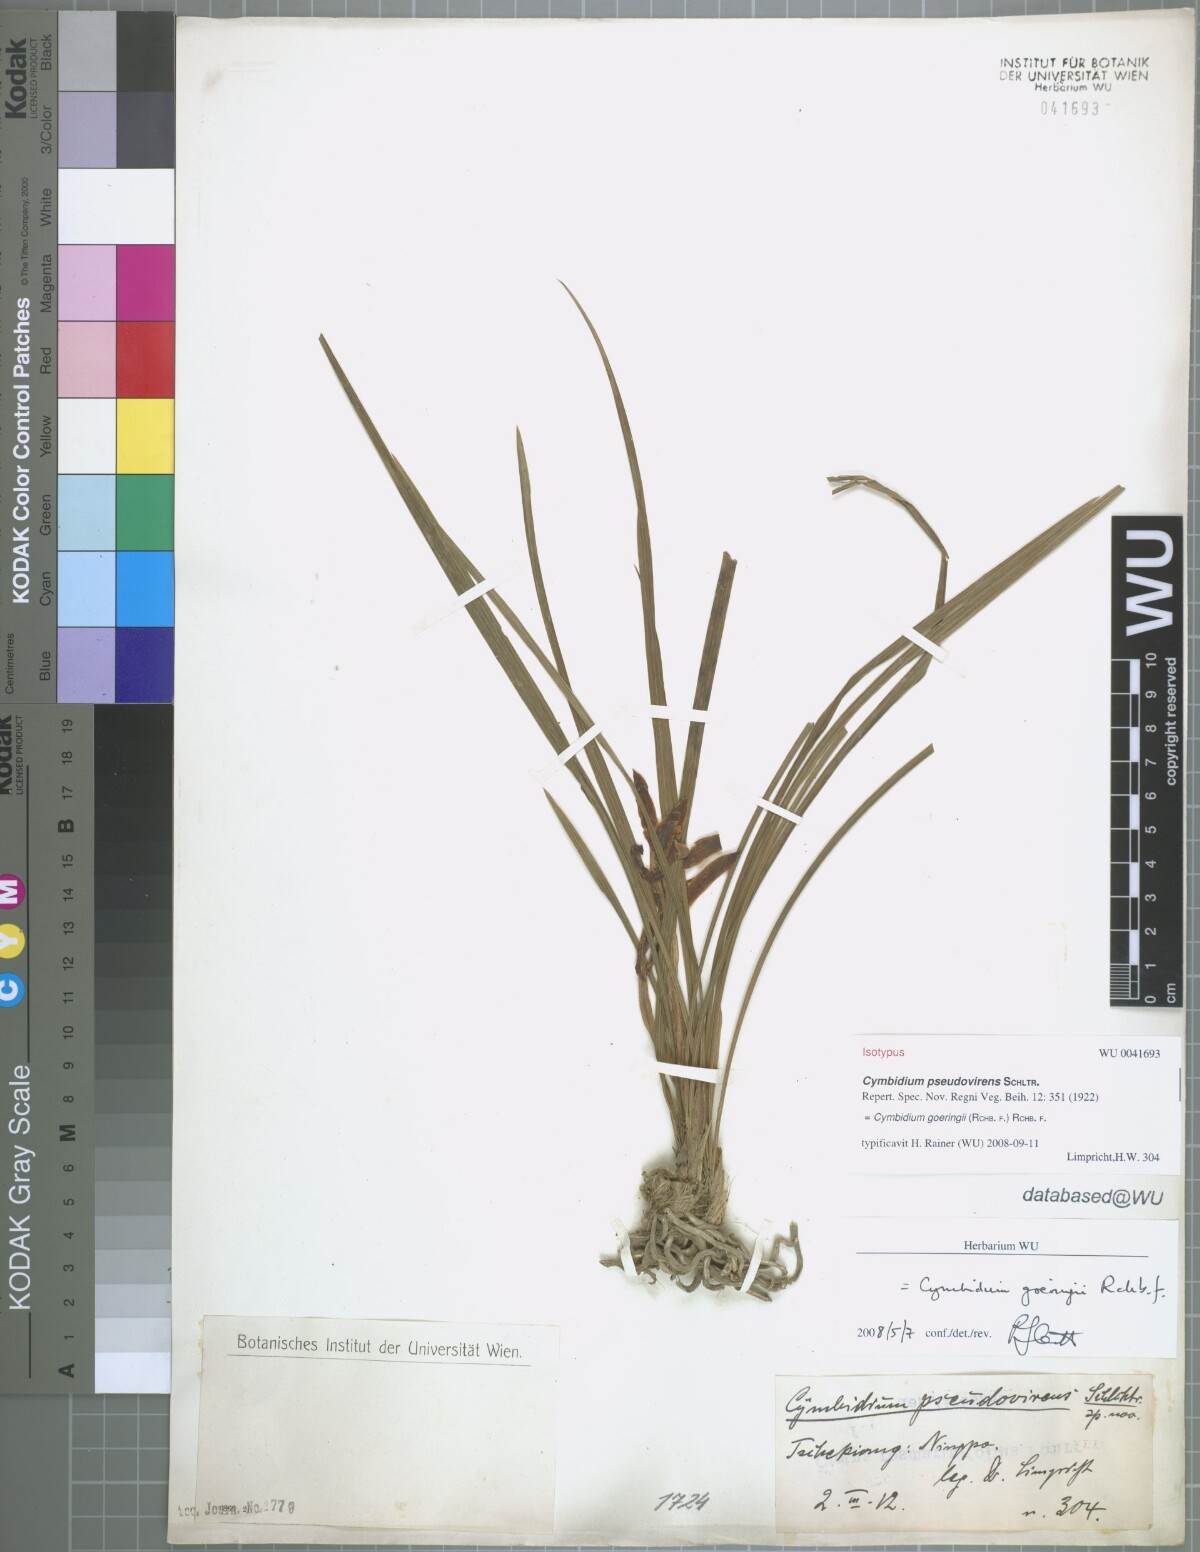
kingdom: Plantae
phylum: Tracheophyta
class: Liliopsida
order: Asparagales
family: Orchidaceae
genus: Cymbidium
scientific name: Cymbidium goeringii
